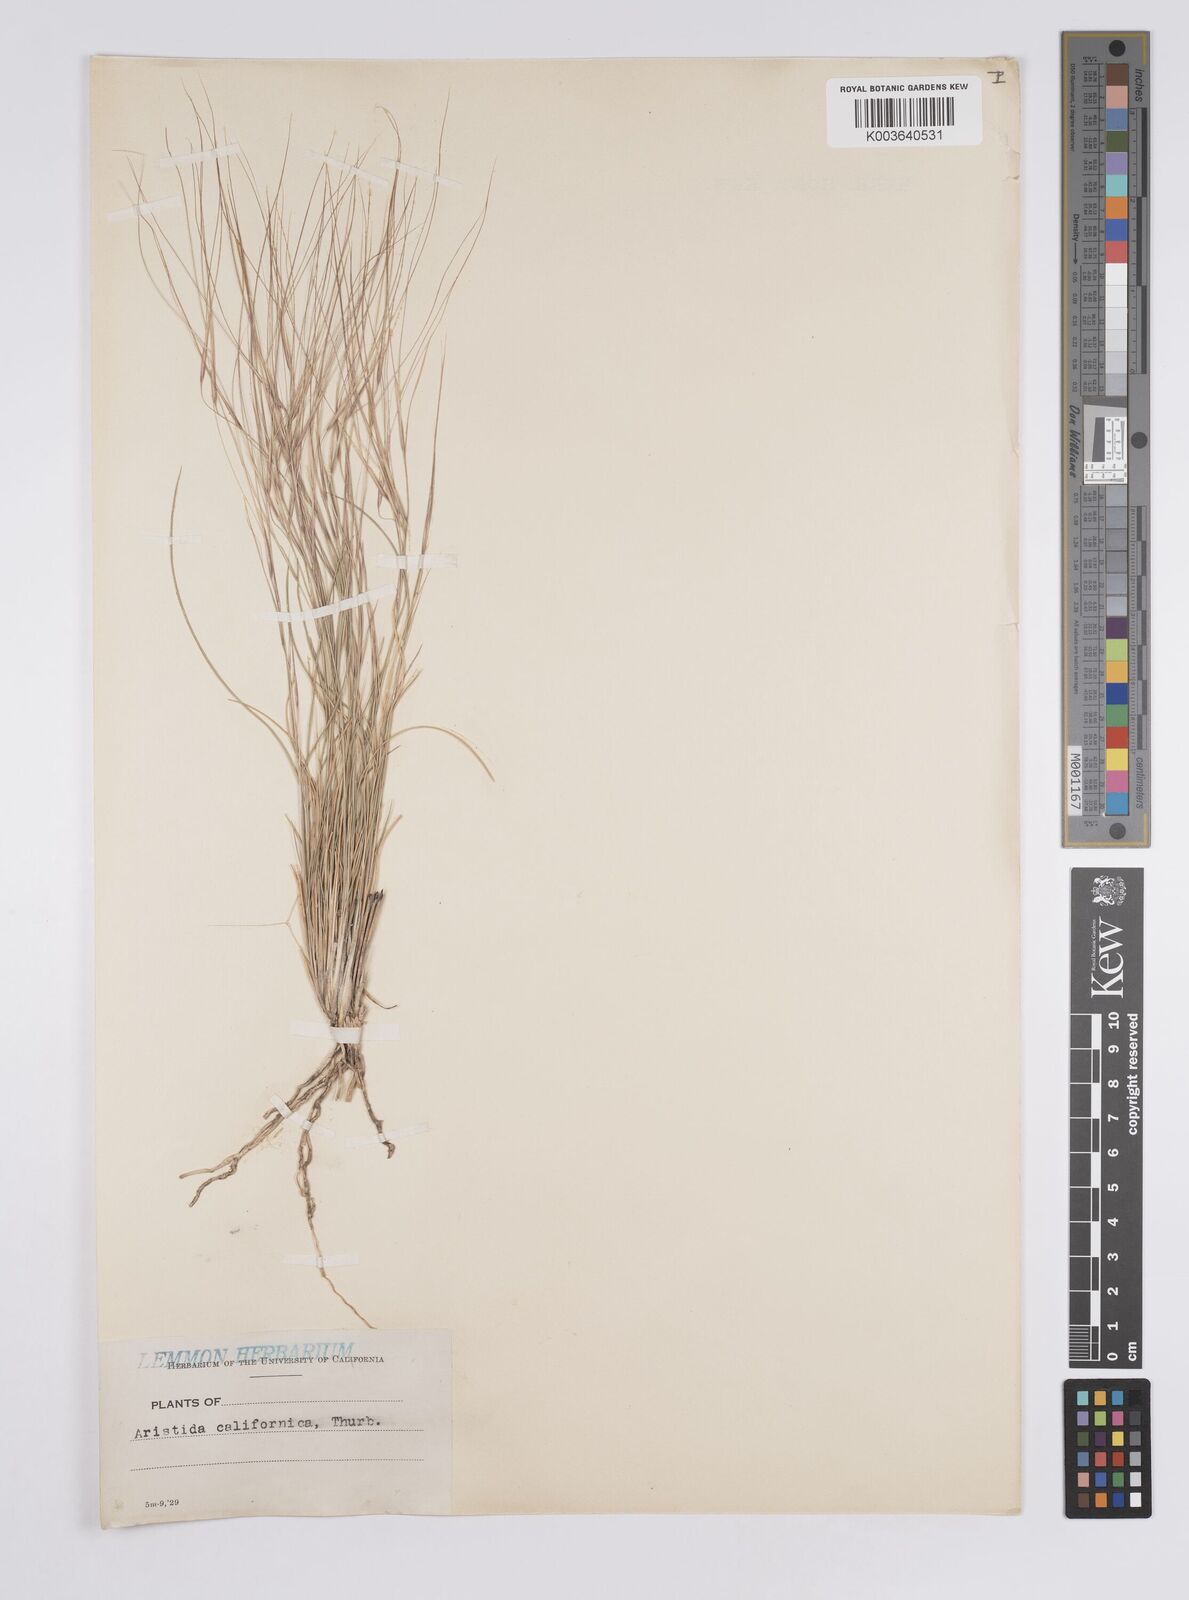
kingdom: Plantae
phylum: Tracheophyta
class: Liliopsida
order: Poales
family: Poaceae
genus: Aristida
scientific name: Aristida californica
